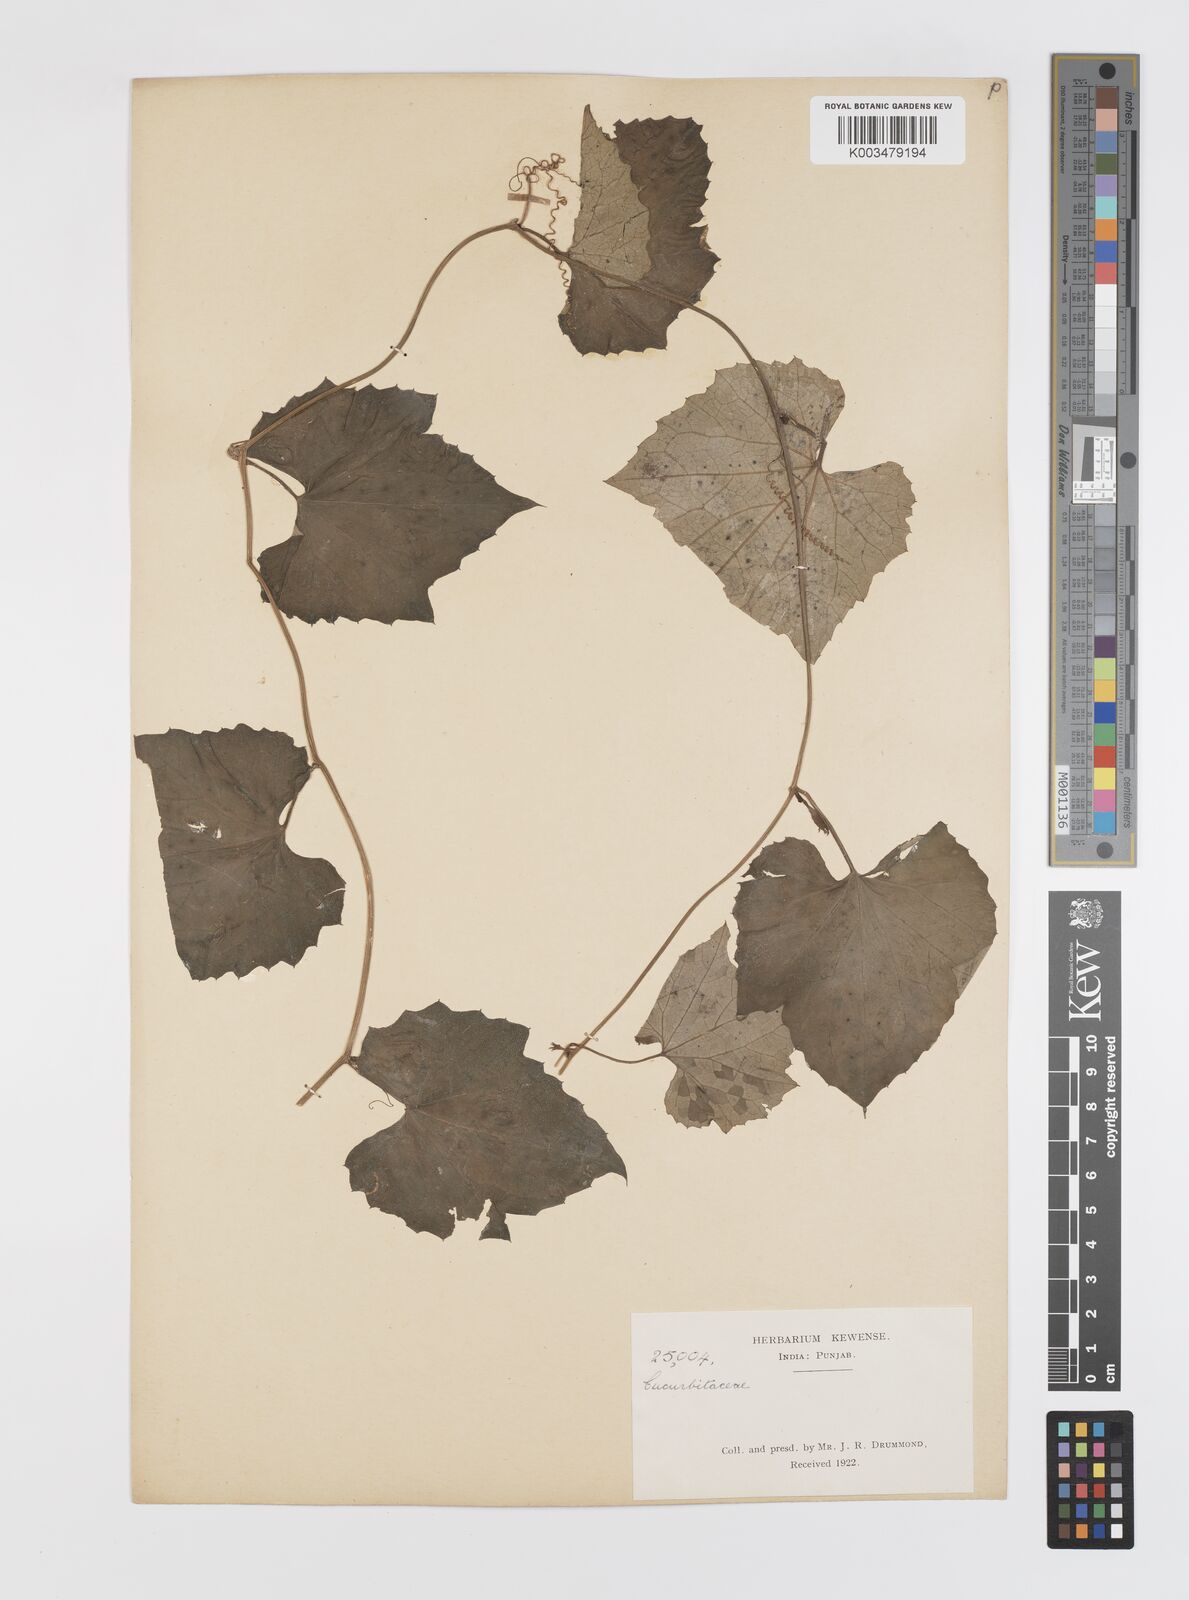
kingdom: Plantae
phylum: Tracheophyta
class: Magnoliopsida
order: Cucurbitales
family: Cucurbitaceae
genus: Trichosanthes
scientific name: Trichosanthes tricuspidata
